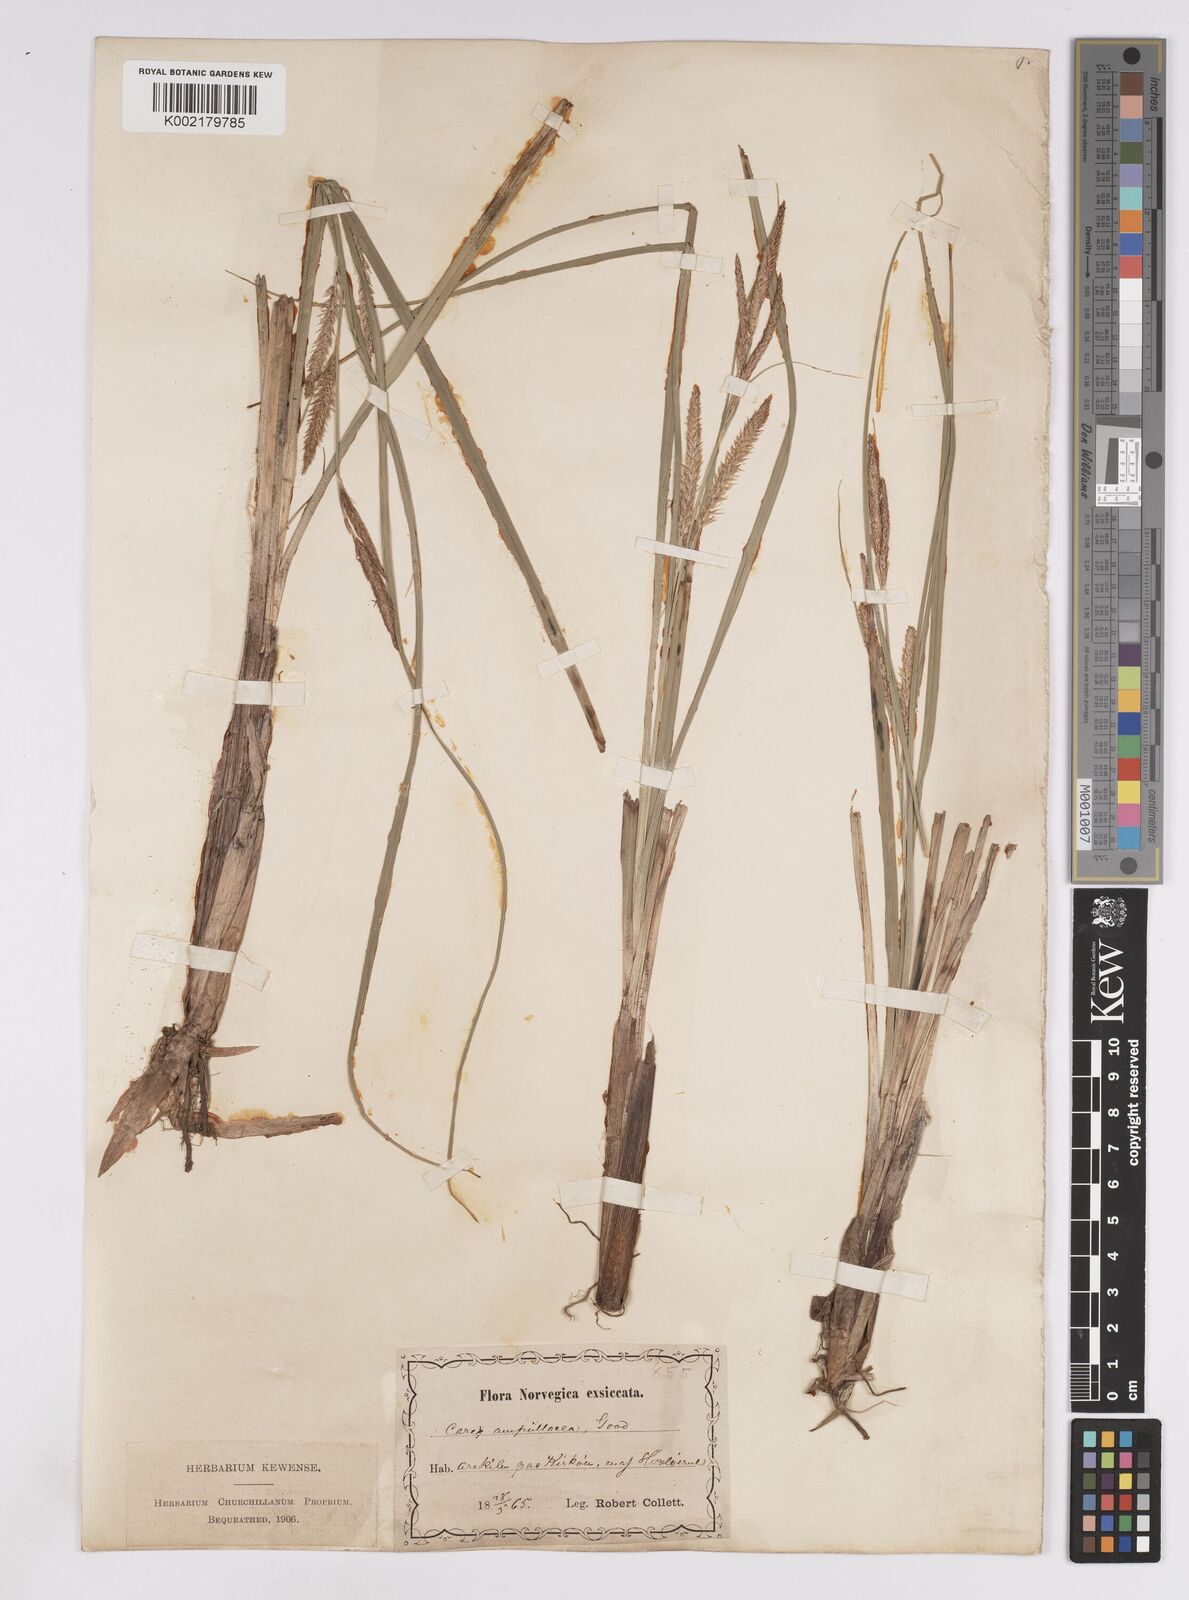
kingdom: Plantae
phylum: Tracheophyta
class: Liliopsida
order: Poales
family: Cyperaceae
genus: Carex
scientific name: Carex rostrata
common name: Bottle sedge
